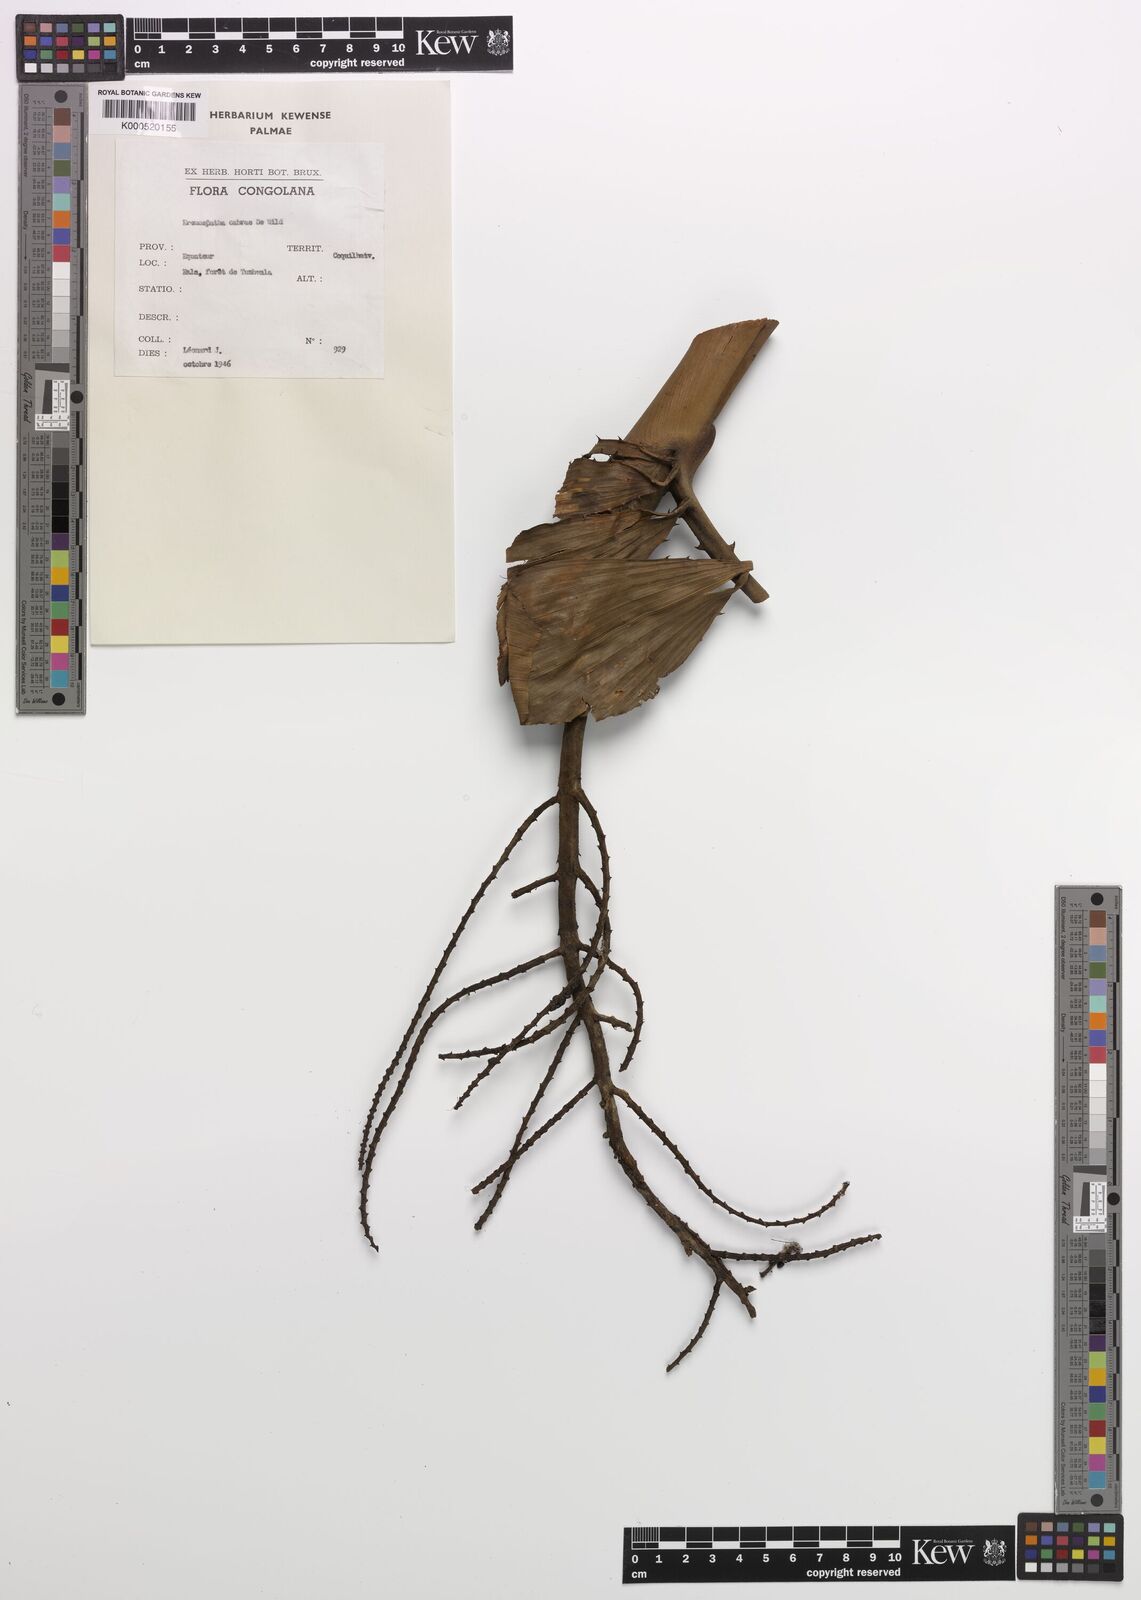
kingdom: Plantae
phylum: Tracheophyta
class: Liliopsida
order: Arecales
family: Arecaceae
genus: Eremospatha
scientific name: Eremospatha cabrae
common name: Rattan
